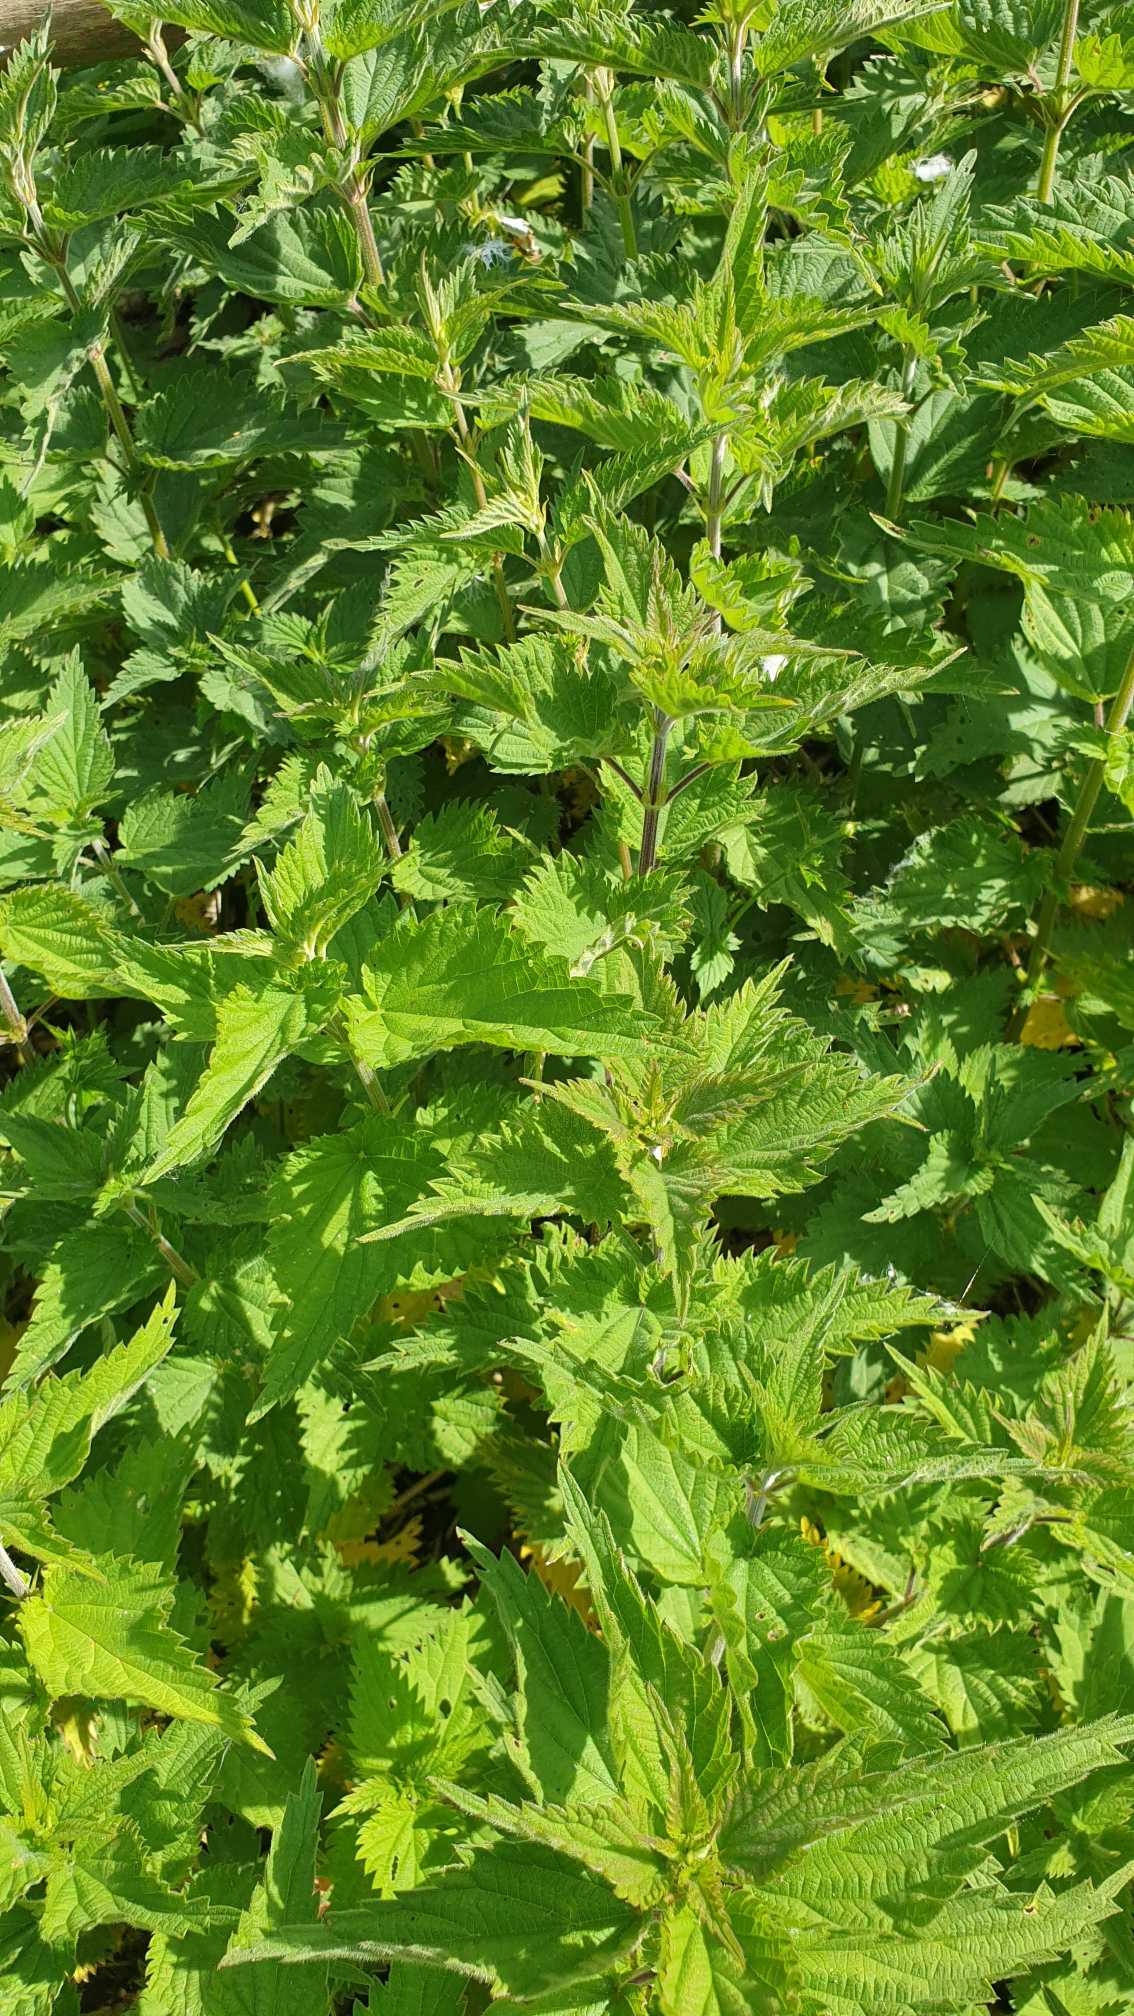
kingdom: Plantae
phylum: Tracheophyta
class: Magnoliopsida
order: Rosales
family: Urticaceae
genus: Urtica
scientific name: Urtica dioica
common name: Stor nælde
